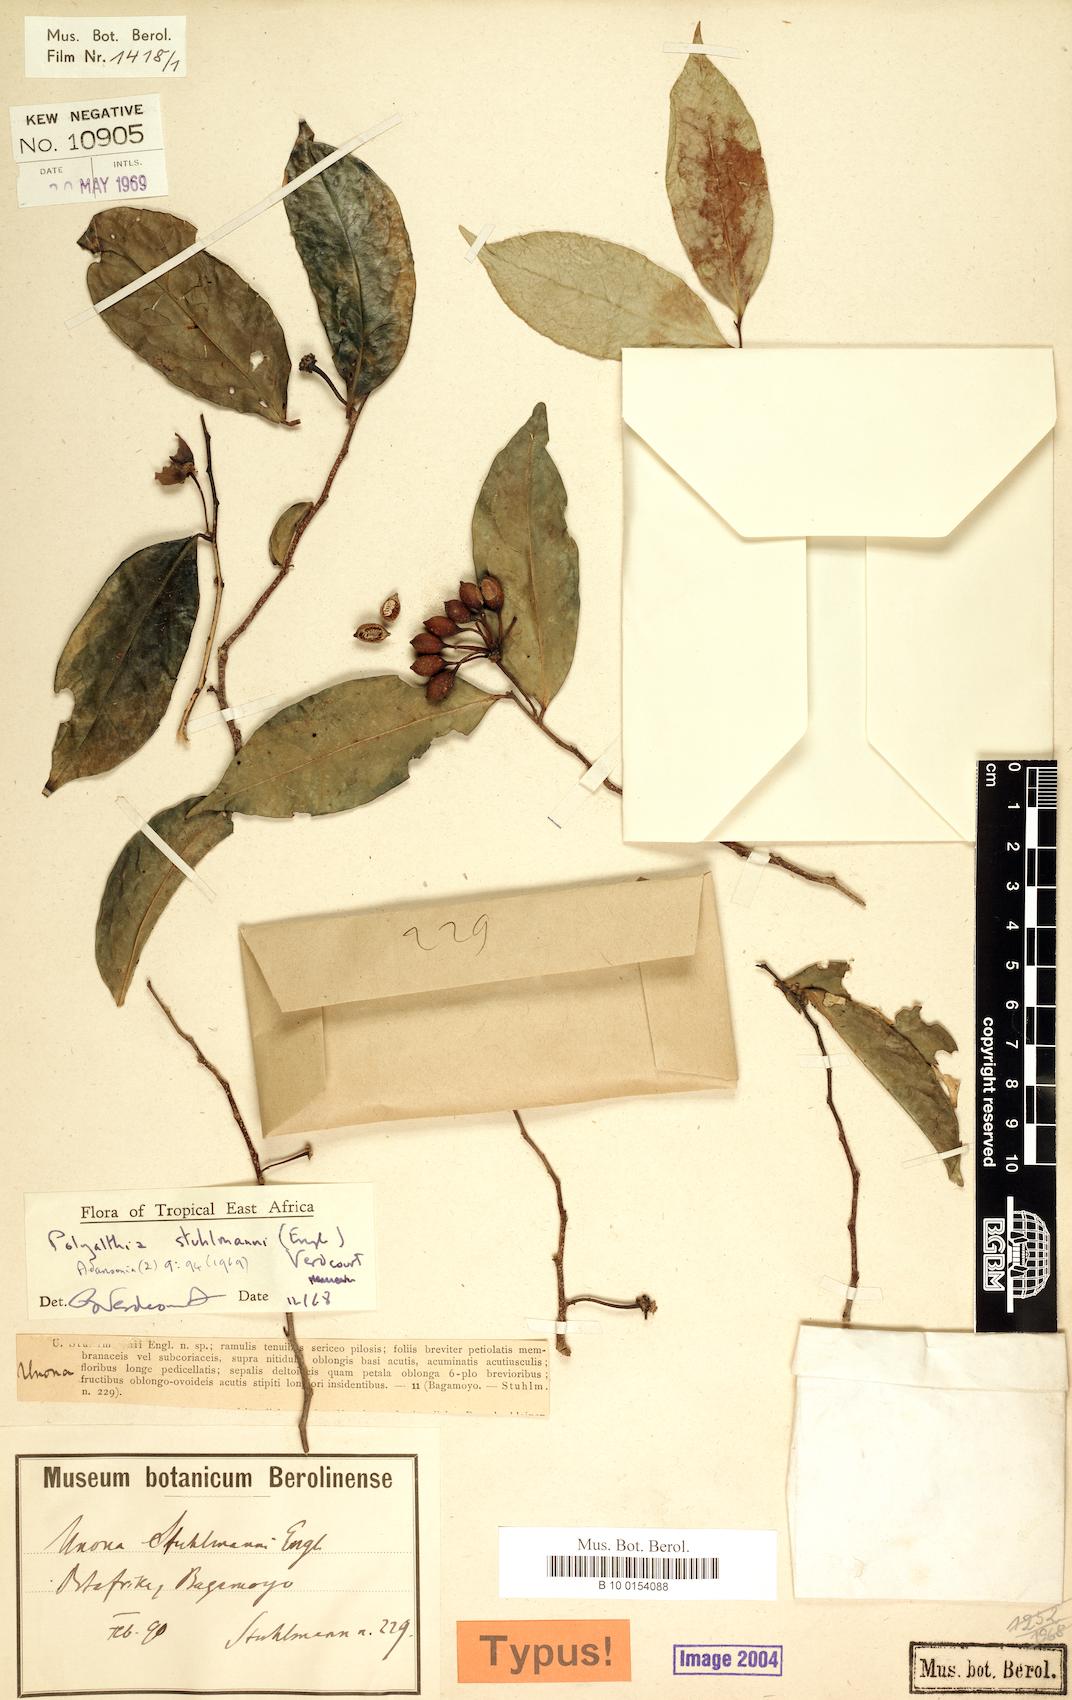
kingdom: Plantae
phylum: Tracheophyta
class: Magnoliopsida
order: Magnoliales
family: Annonaceae
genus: Hubera
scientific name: Hubera stuhlmannii
